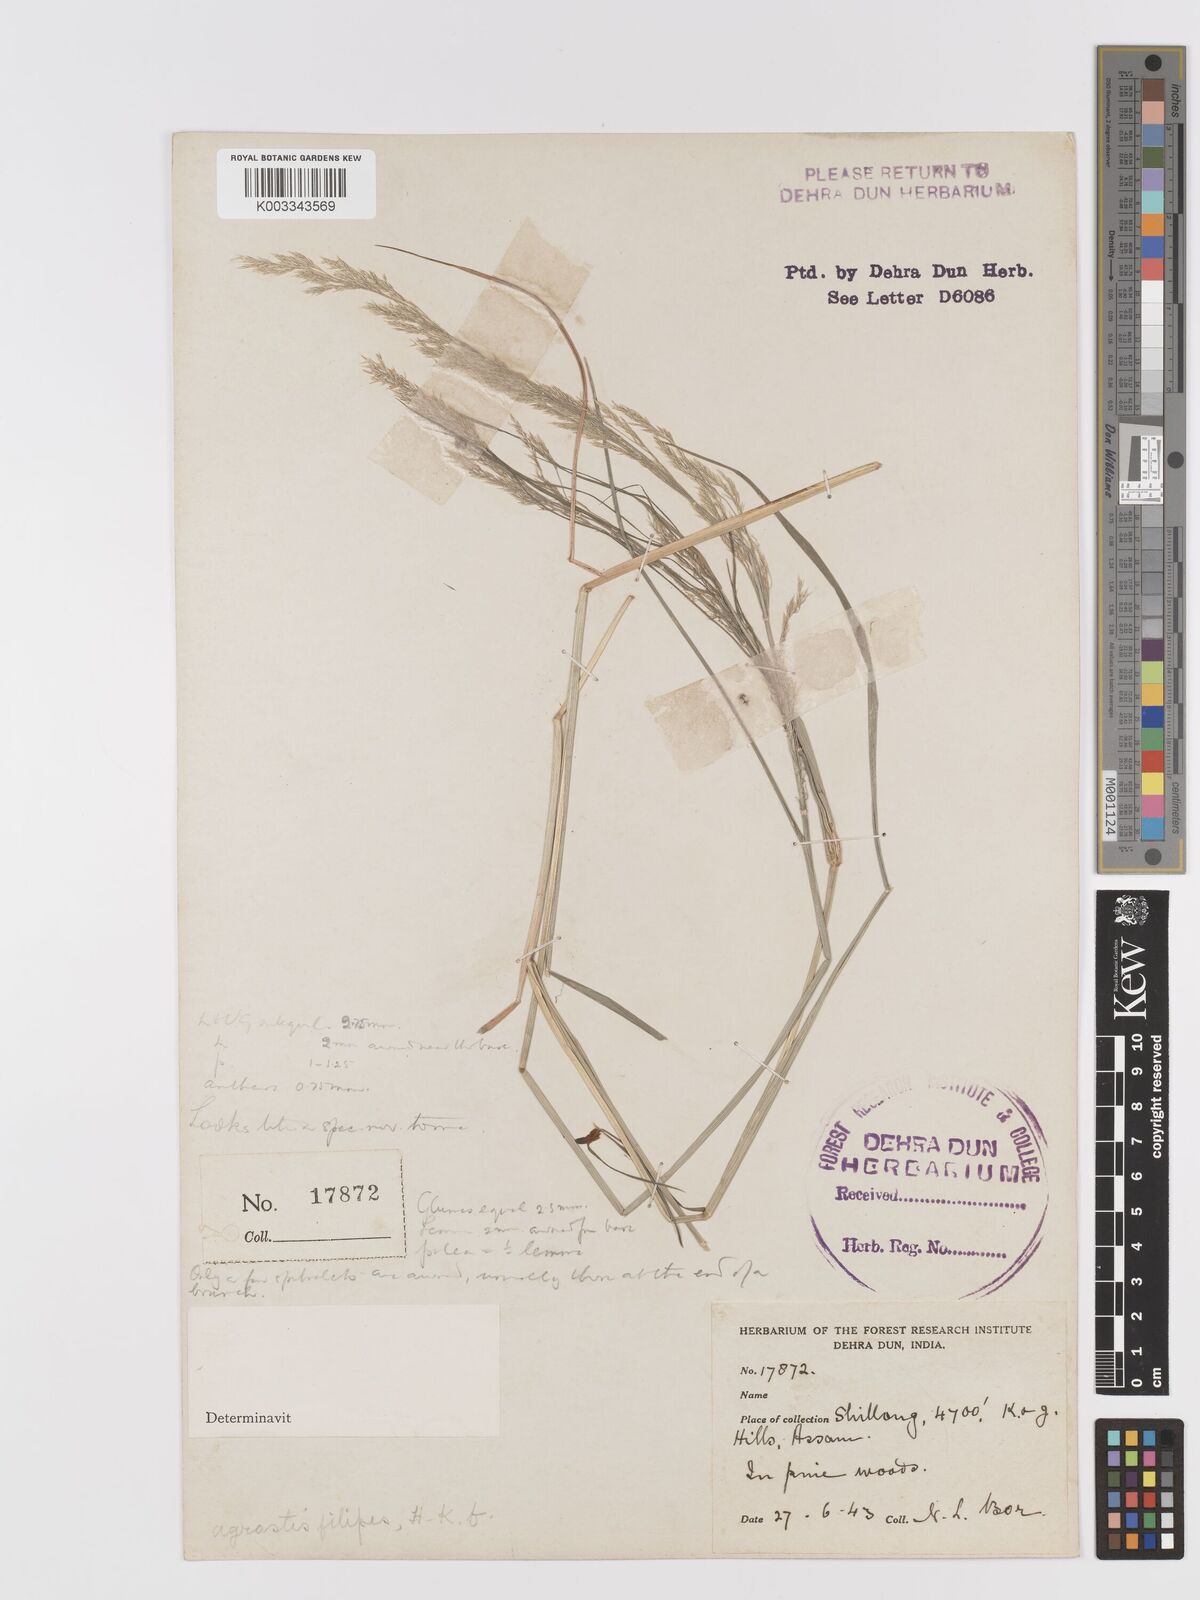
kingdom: Plantae
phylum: Tracheophyta
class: Liliopsida
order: Poales
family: Poaceae
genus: Agrostis
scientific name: Agrostis filipes
